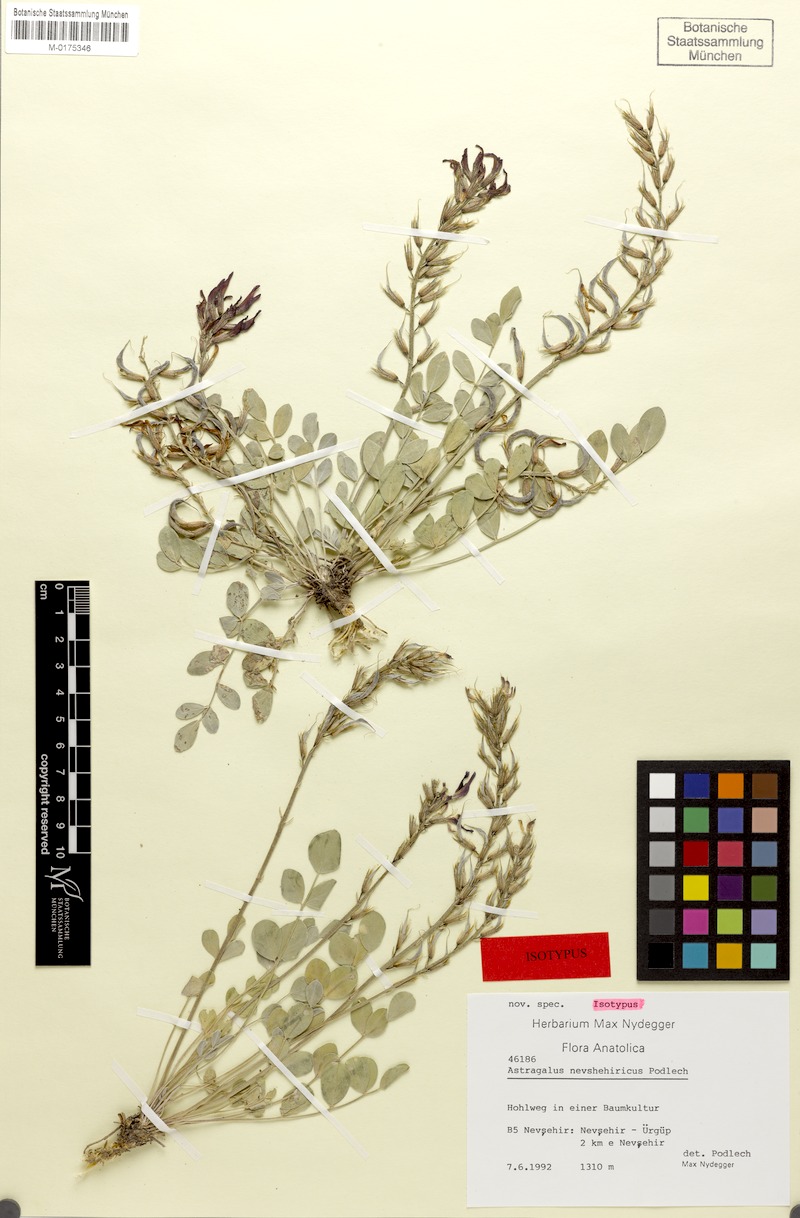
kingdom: Plantae
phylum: Tracheophyta
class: Magnoliopsida
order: Fabales
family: Fabaceae
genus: Astragalus
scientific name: Astragalus tigridis
